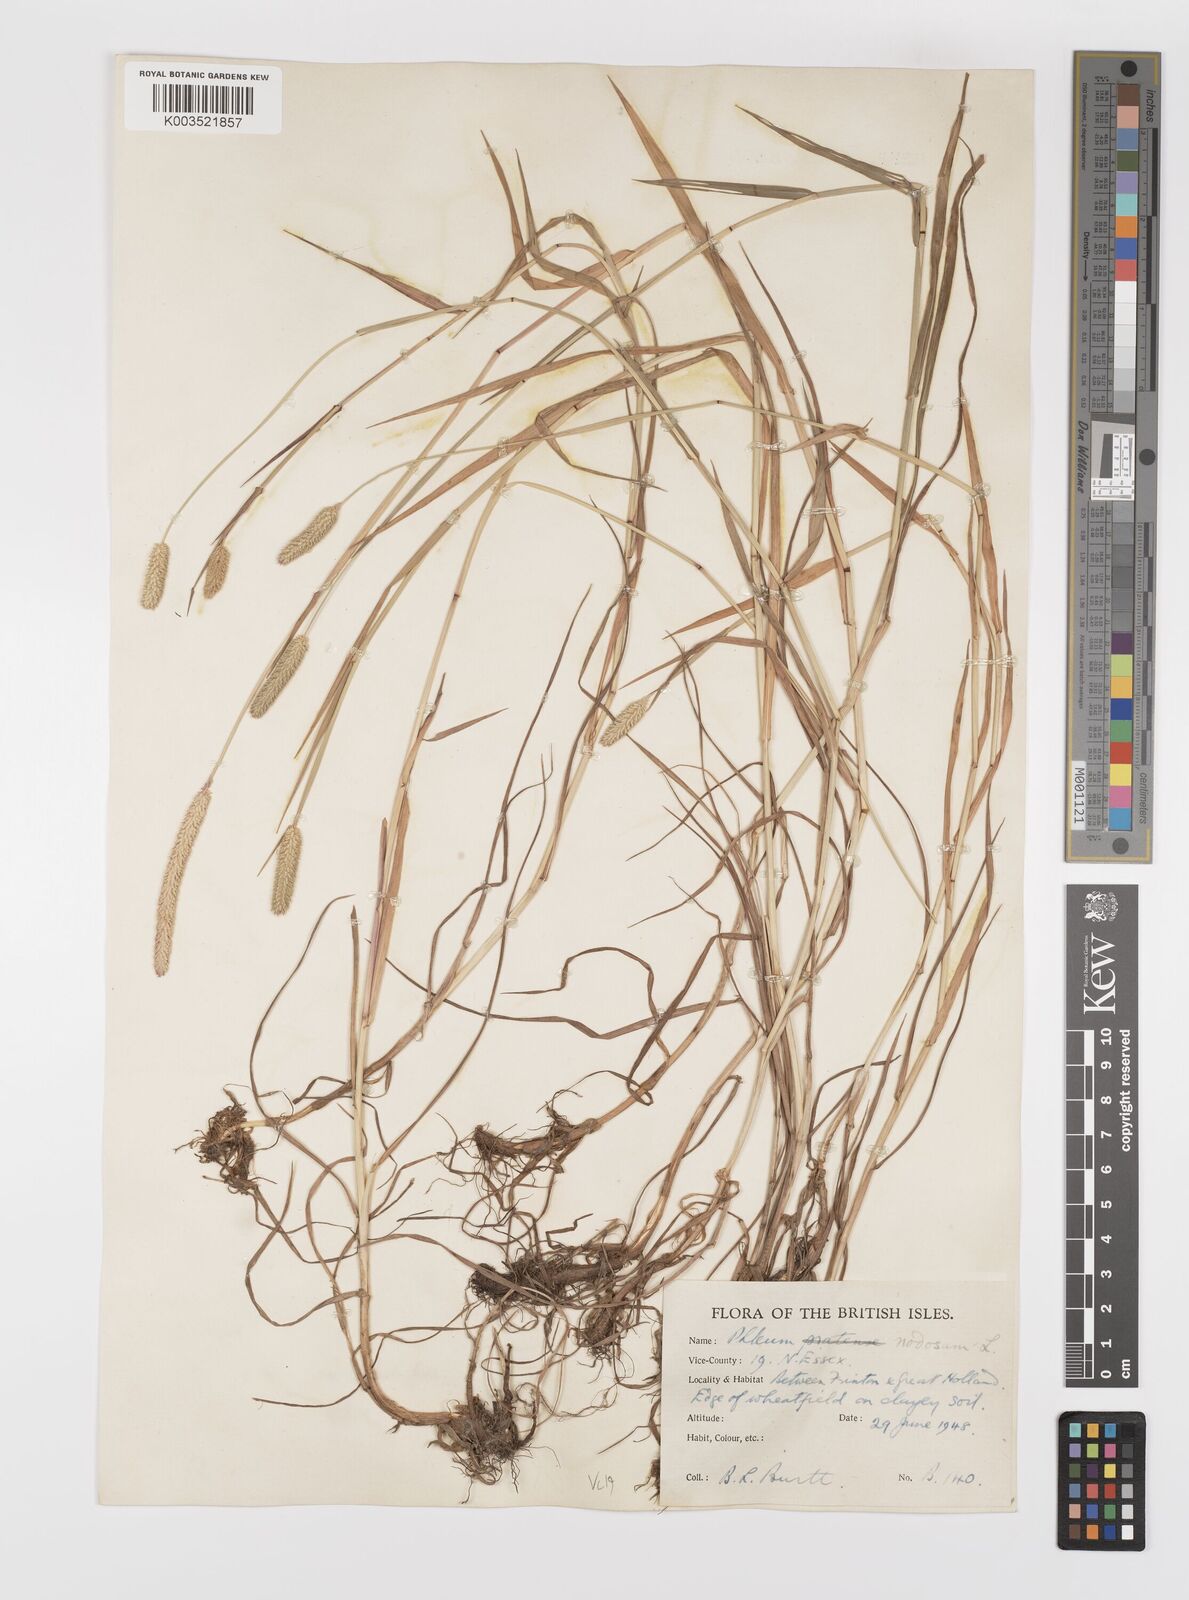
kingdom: Plantae
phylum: Tracheophyta
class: Liliopsida
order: Poales
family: Poaceae
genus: Phleum
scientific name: Phleum bertolonii
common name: Smaller cat's-tail
